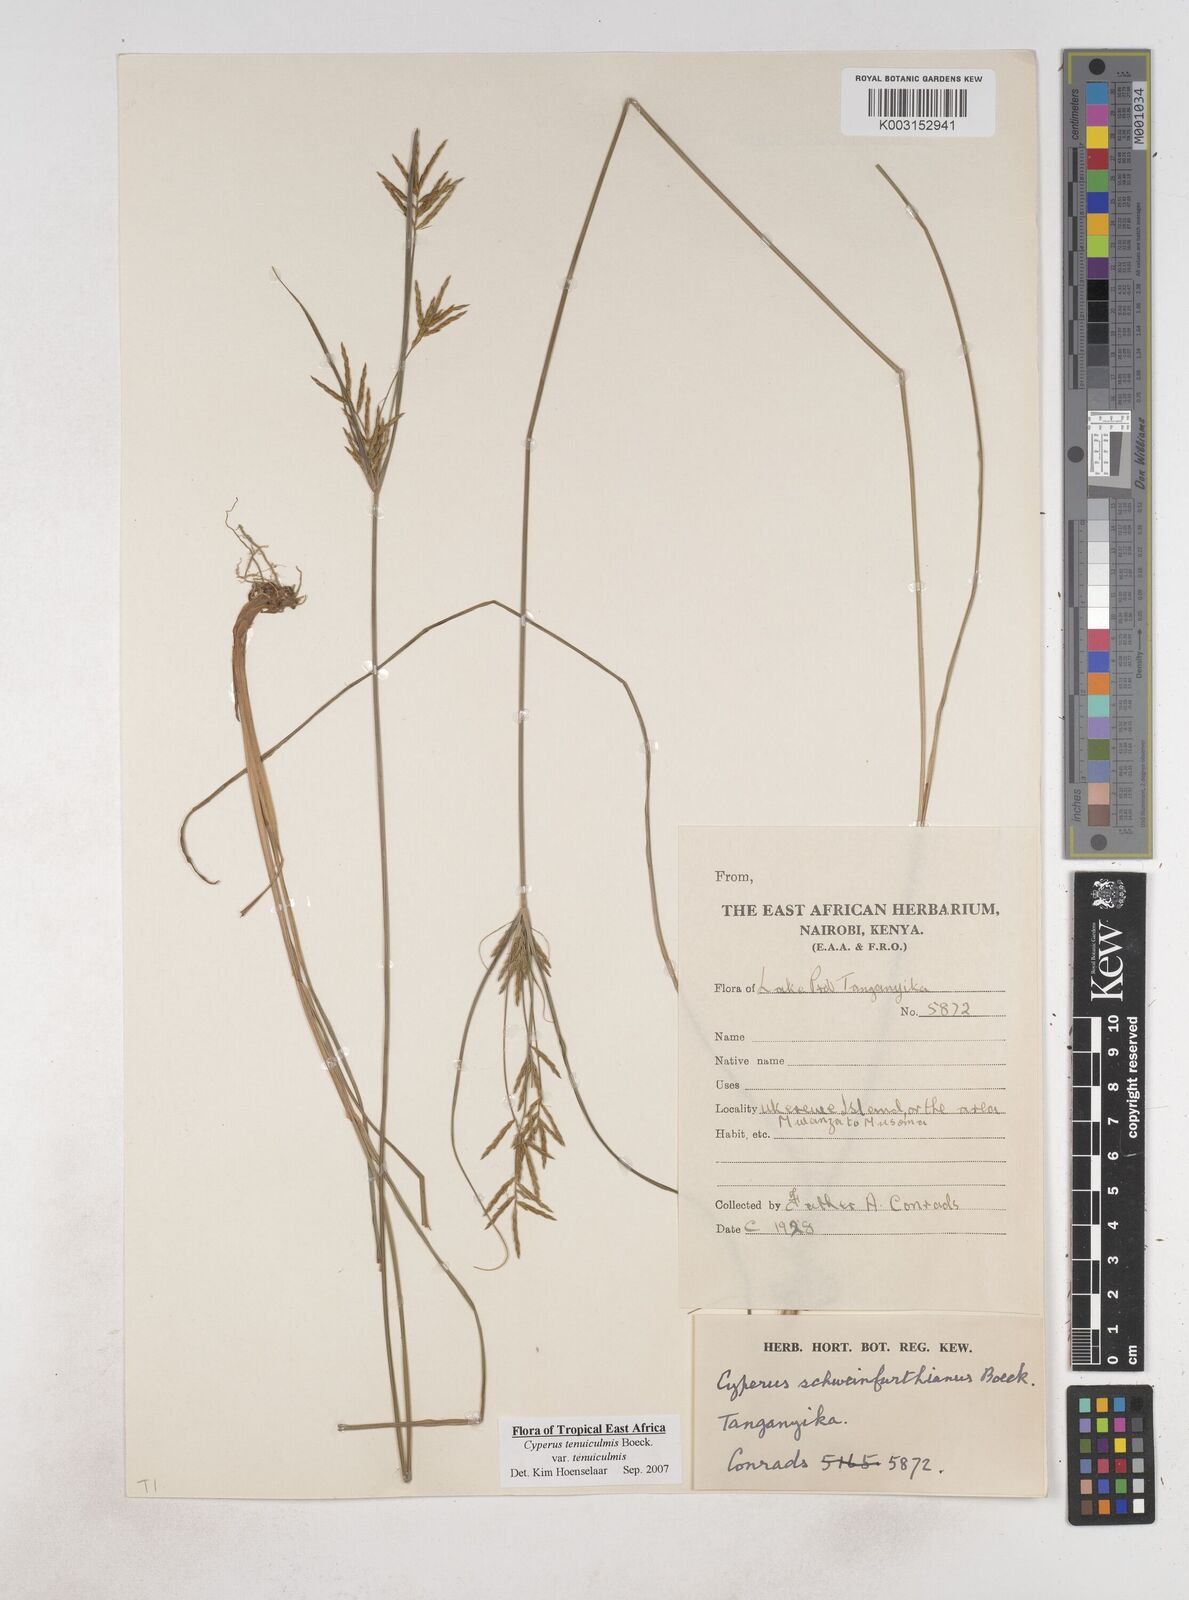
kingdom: Plantae
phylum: Tracheophyta
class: Liliopsida
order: Poales
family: Cyperaceae
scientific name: Cyperaceae
